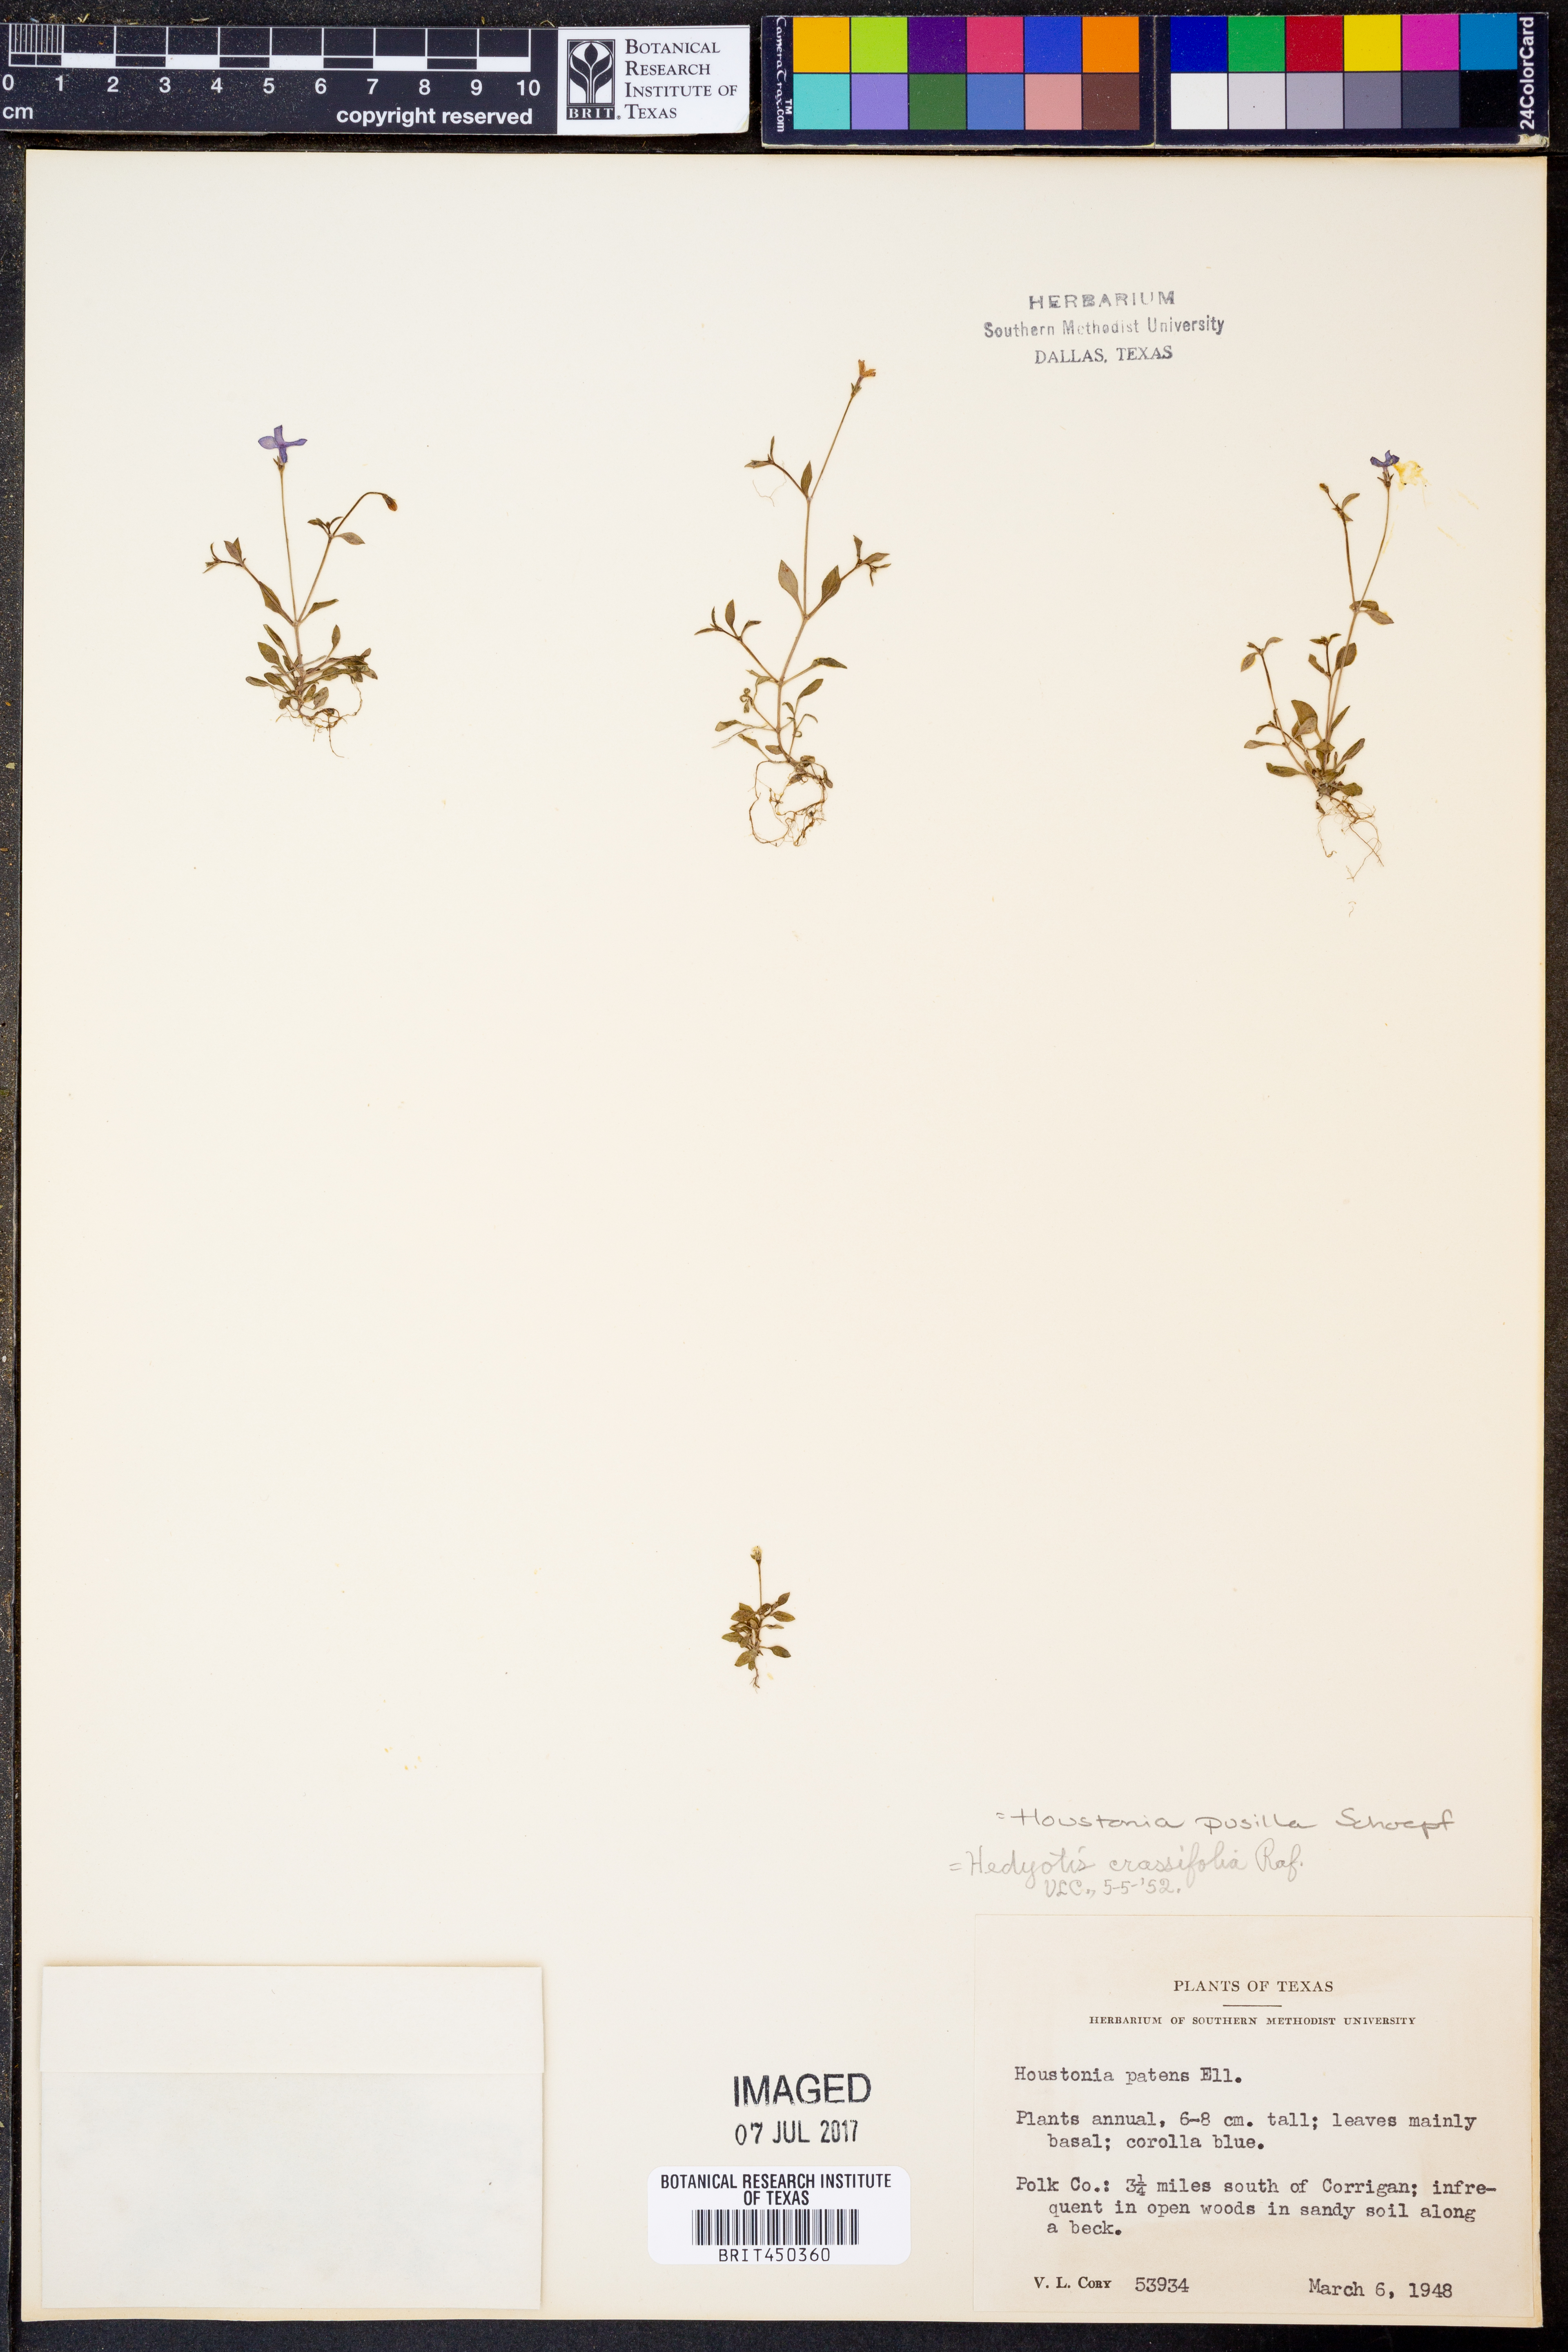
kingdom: Plantae
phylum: Tracheophyta
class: Magnoliopsida
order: Gentianales
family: Rubiaceae
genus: Houstonia
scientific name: Houstonia pusilla
